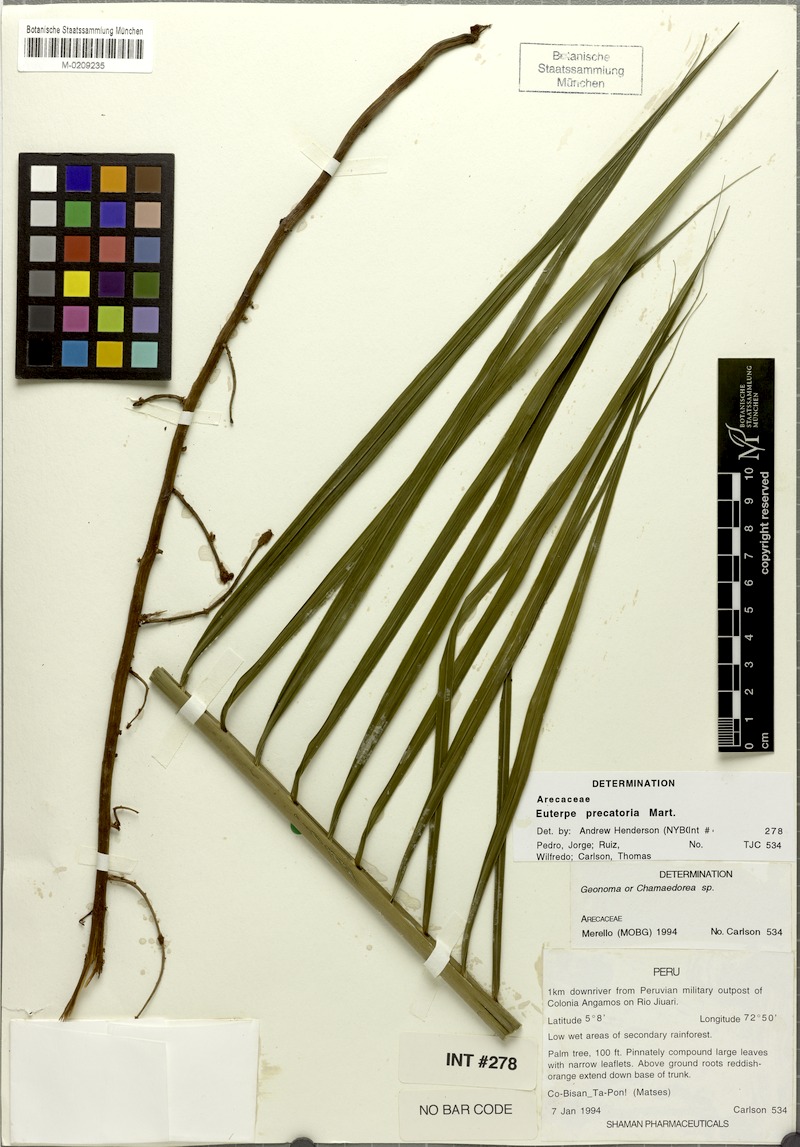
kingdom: Plantae
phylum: Tracheophyta
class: Liliopsida
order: Arecales
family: Arecaceae
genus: Euterpe
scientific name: Euterpe precatoria
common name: Mountain-cabbage
